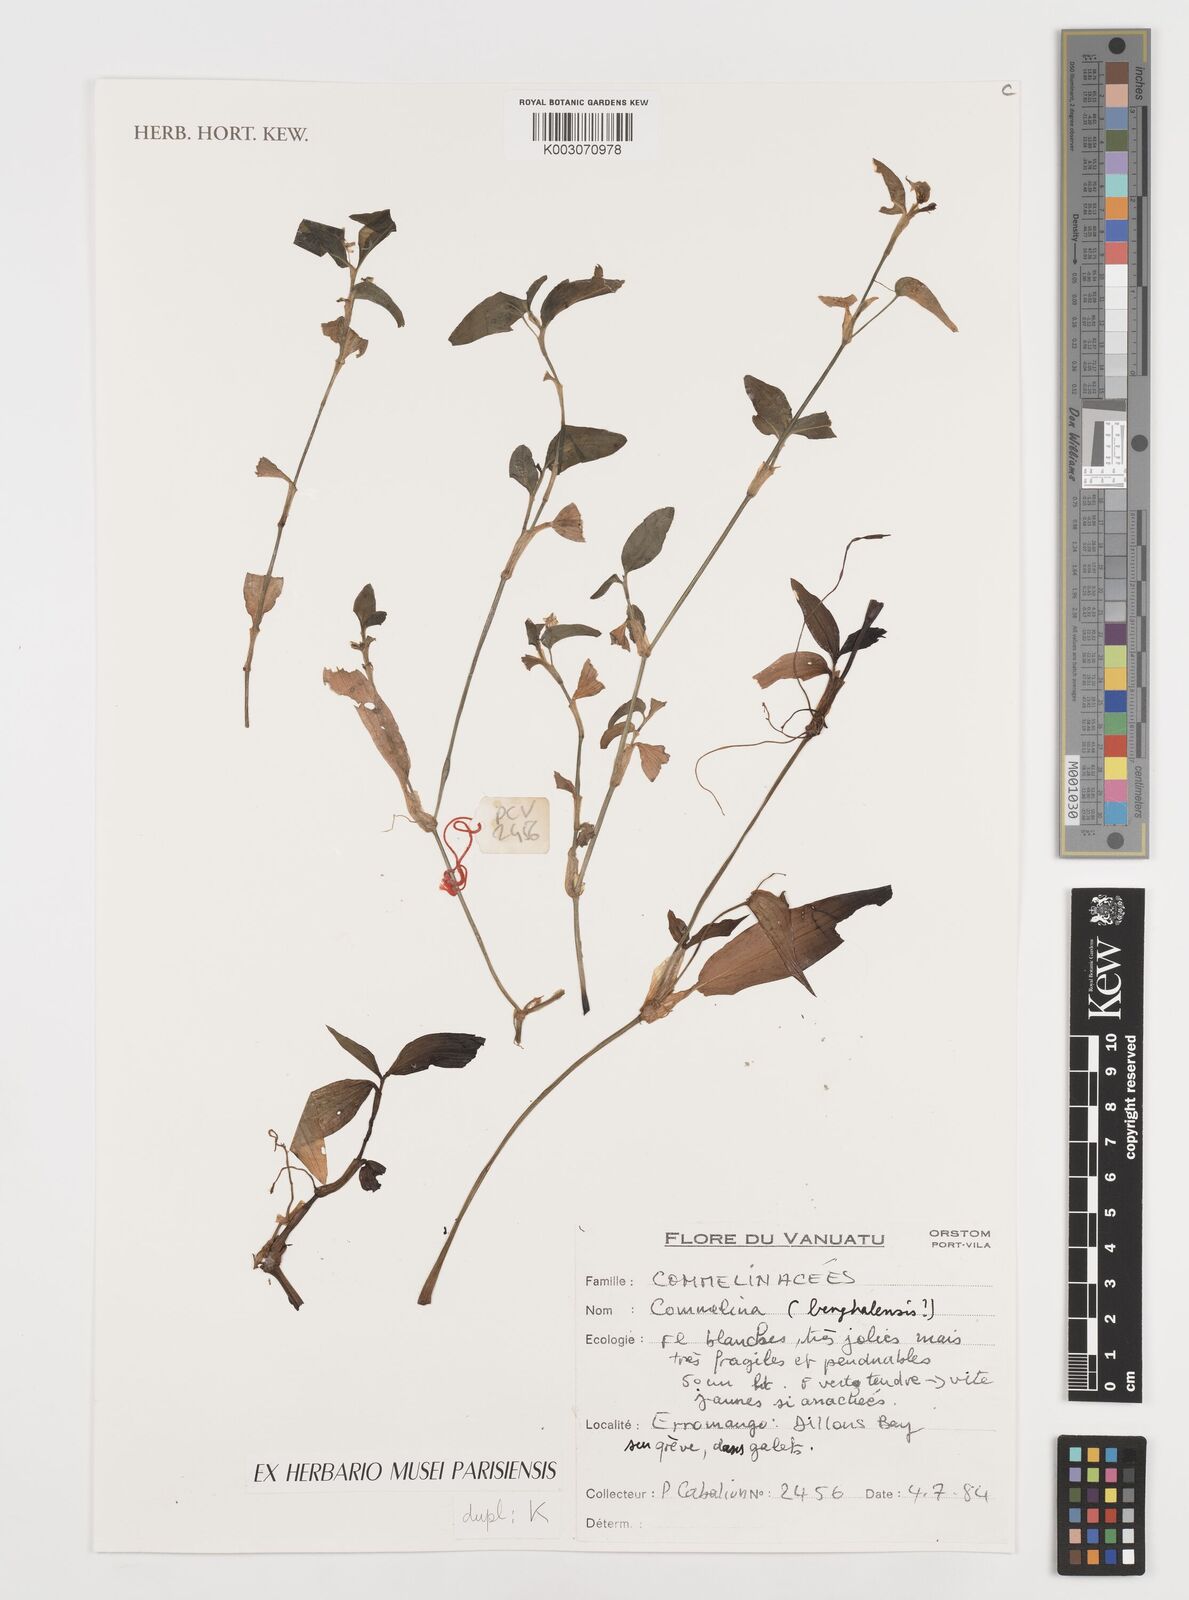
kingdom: Plantae
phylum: Tracheophyta
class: Liliopsida
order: Commelinales
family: Commelinaceae
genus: Commelina
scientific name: Commelina benghalensis
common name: Jio
